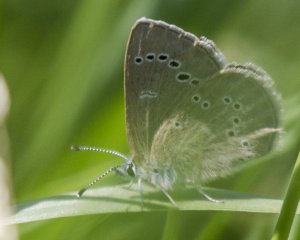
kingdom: Animalia
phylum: Arthropoda
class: Insecta
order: Lepidoptera
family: Nymphalidae
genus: Coenonympha
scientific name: Coenonympha tullia
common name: Large Heath
